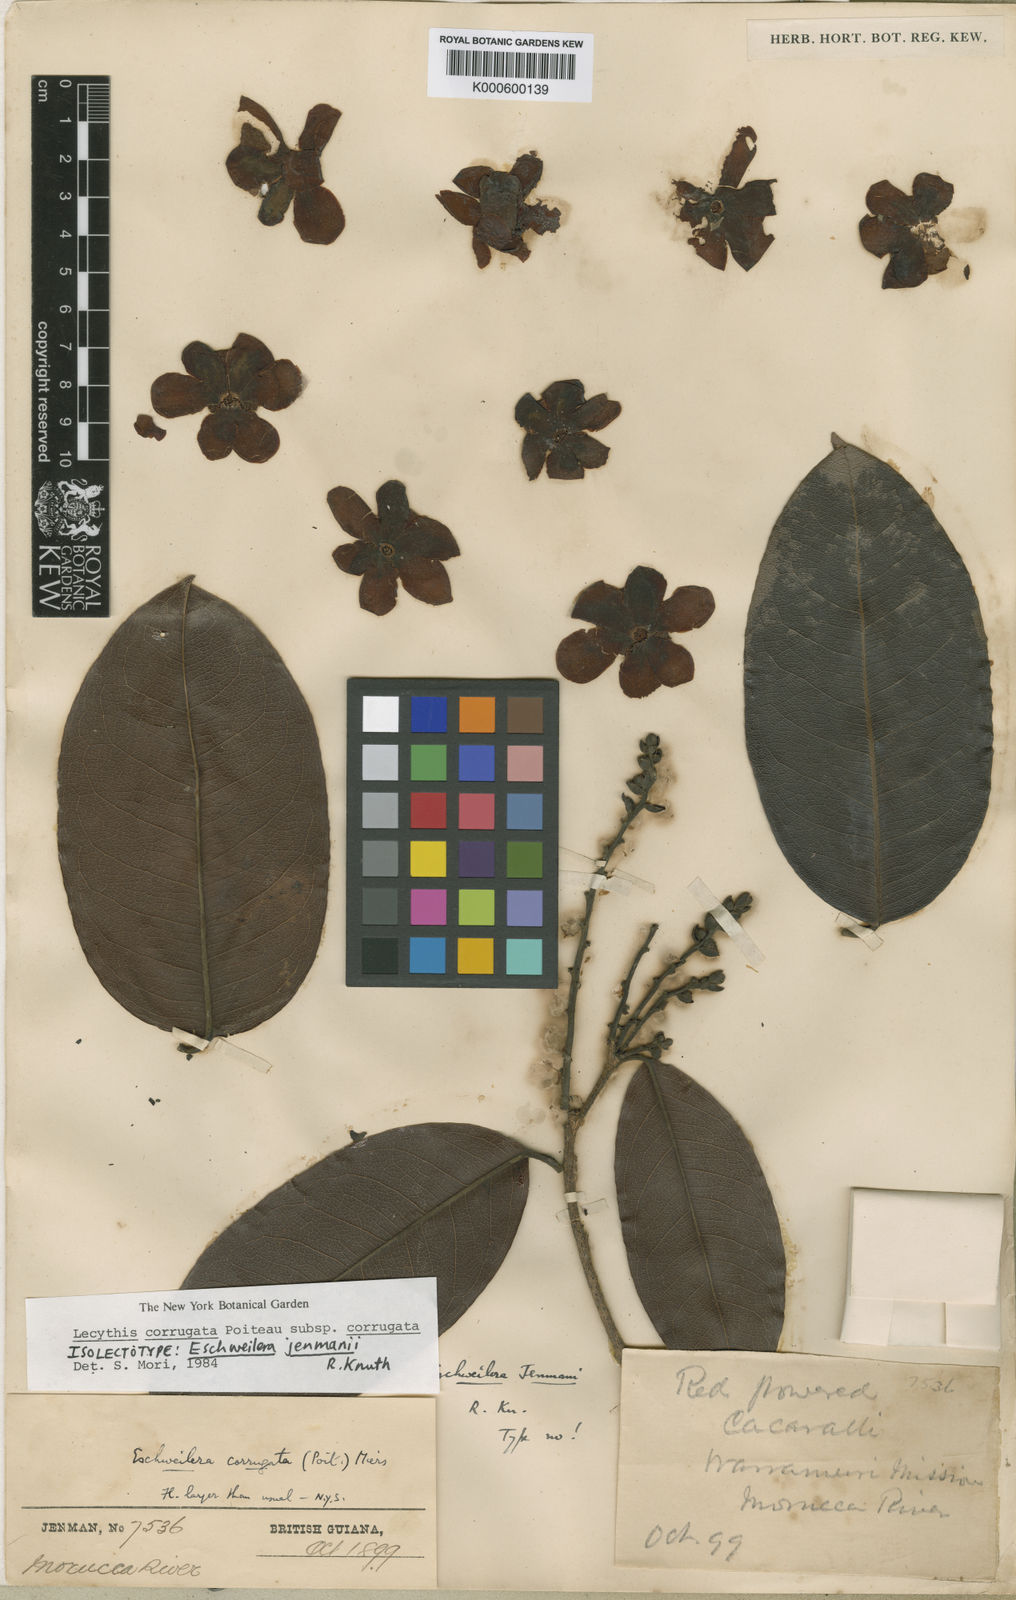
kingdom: Plantae
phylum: Tracheophyta
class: Magnoliopsida
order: Ericales
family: Lecythidaceae
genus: Lecythis
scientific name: Lecythis corrugata
